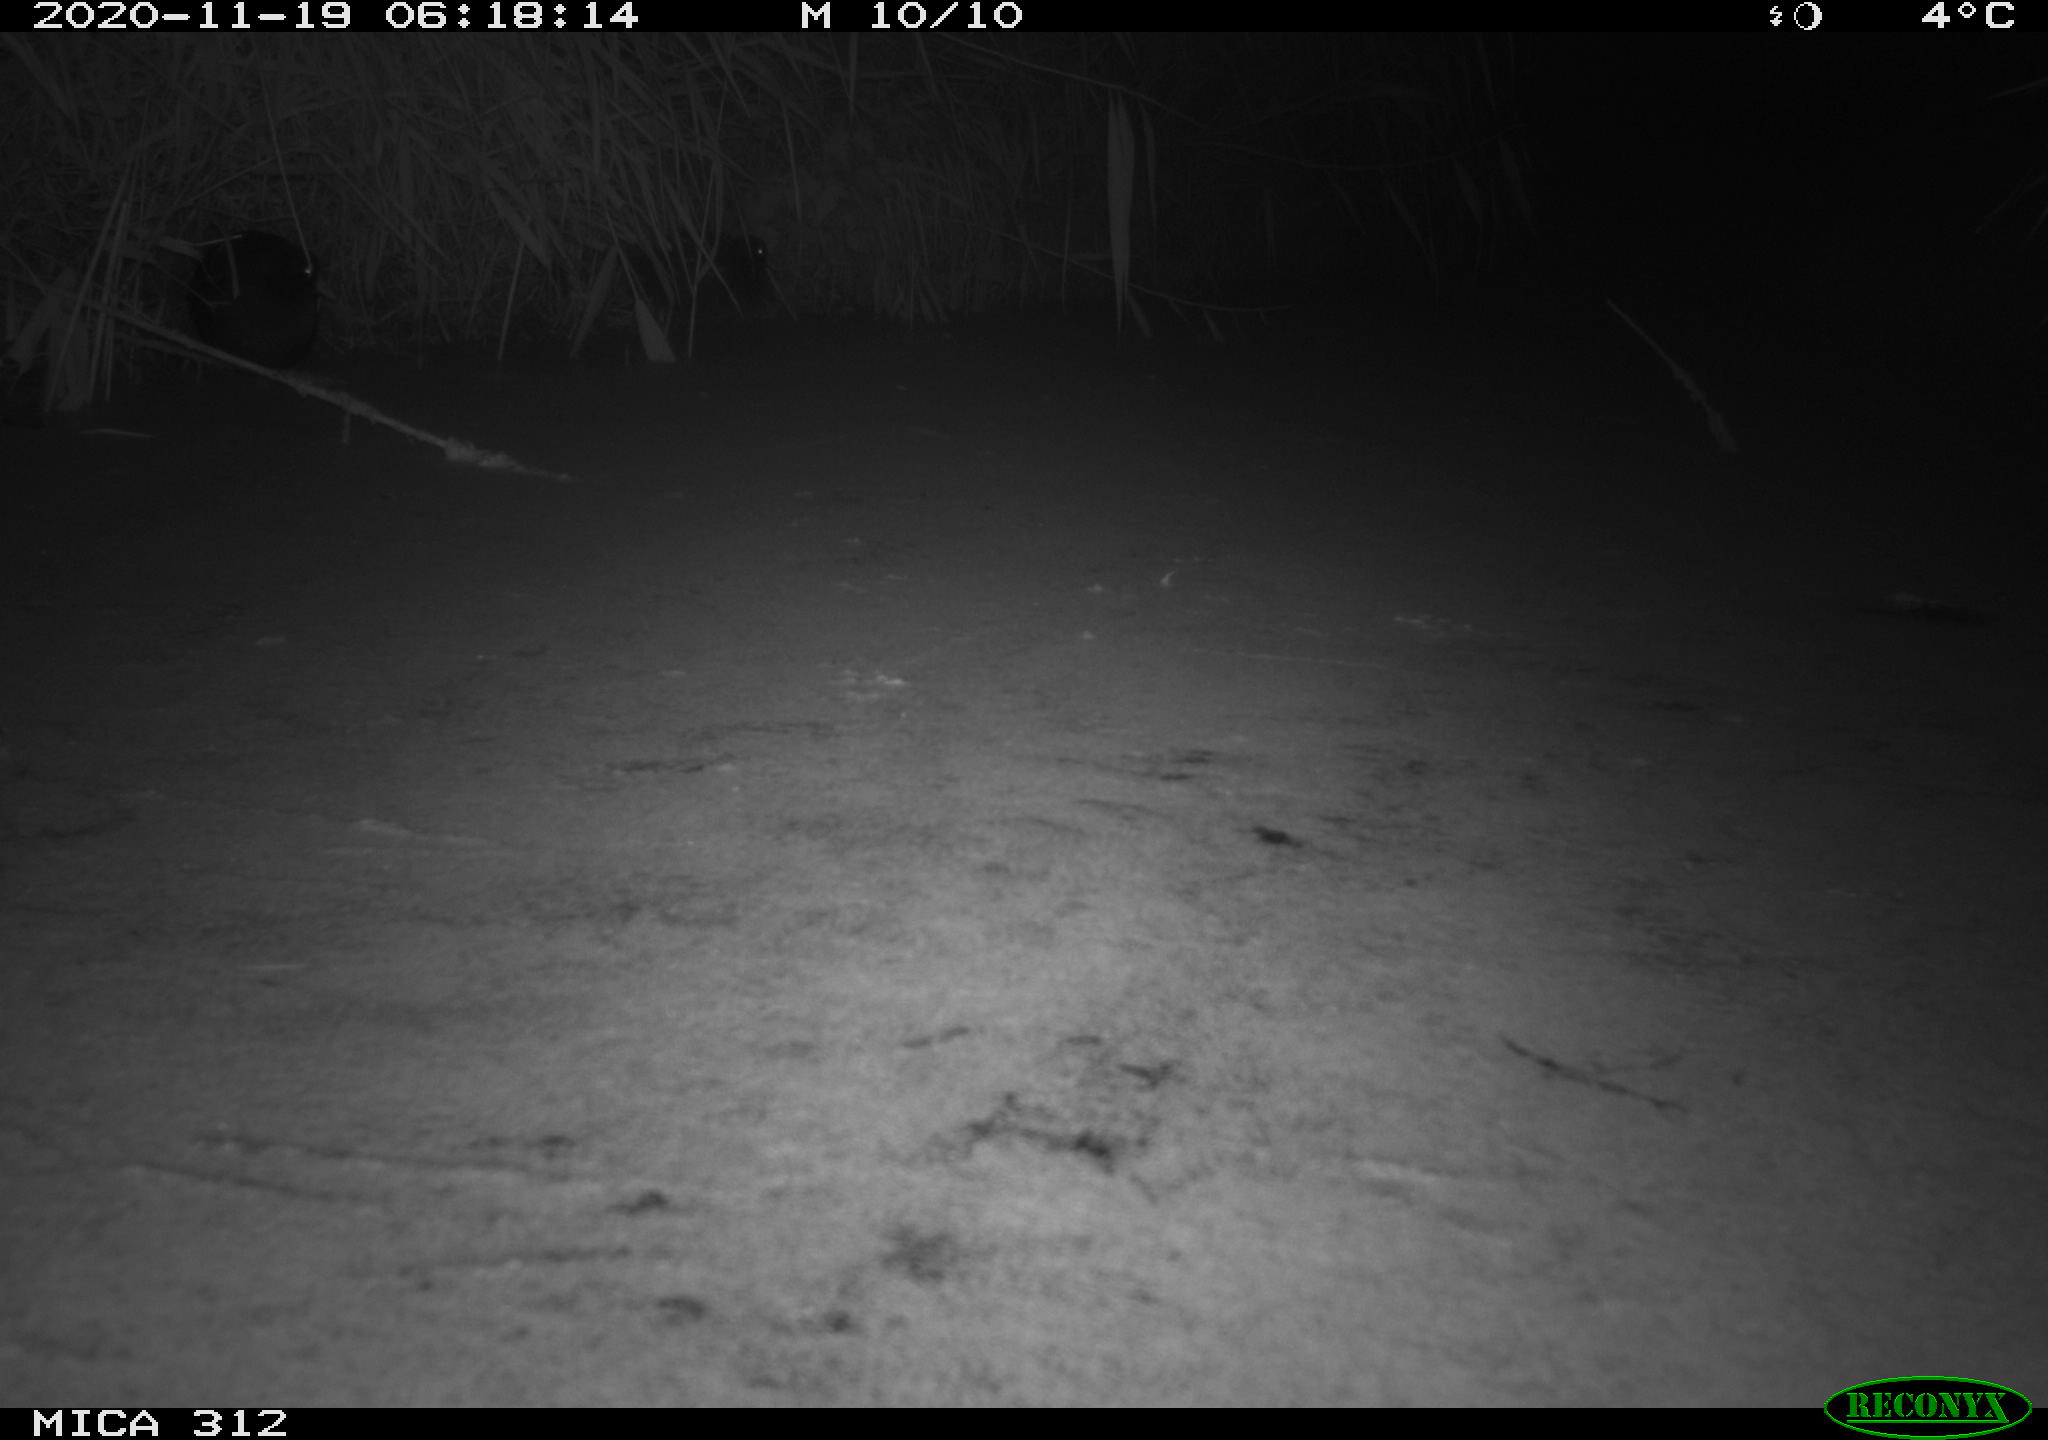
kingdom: Animalia
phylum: Chordata
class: Aves
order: Gruiformes
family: Rallidae
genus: Gallinula
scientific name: Gallinula chloropus
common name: Common moorhen
